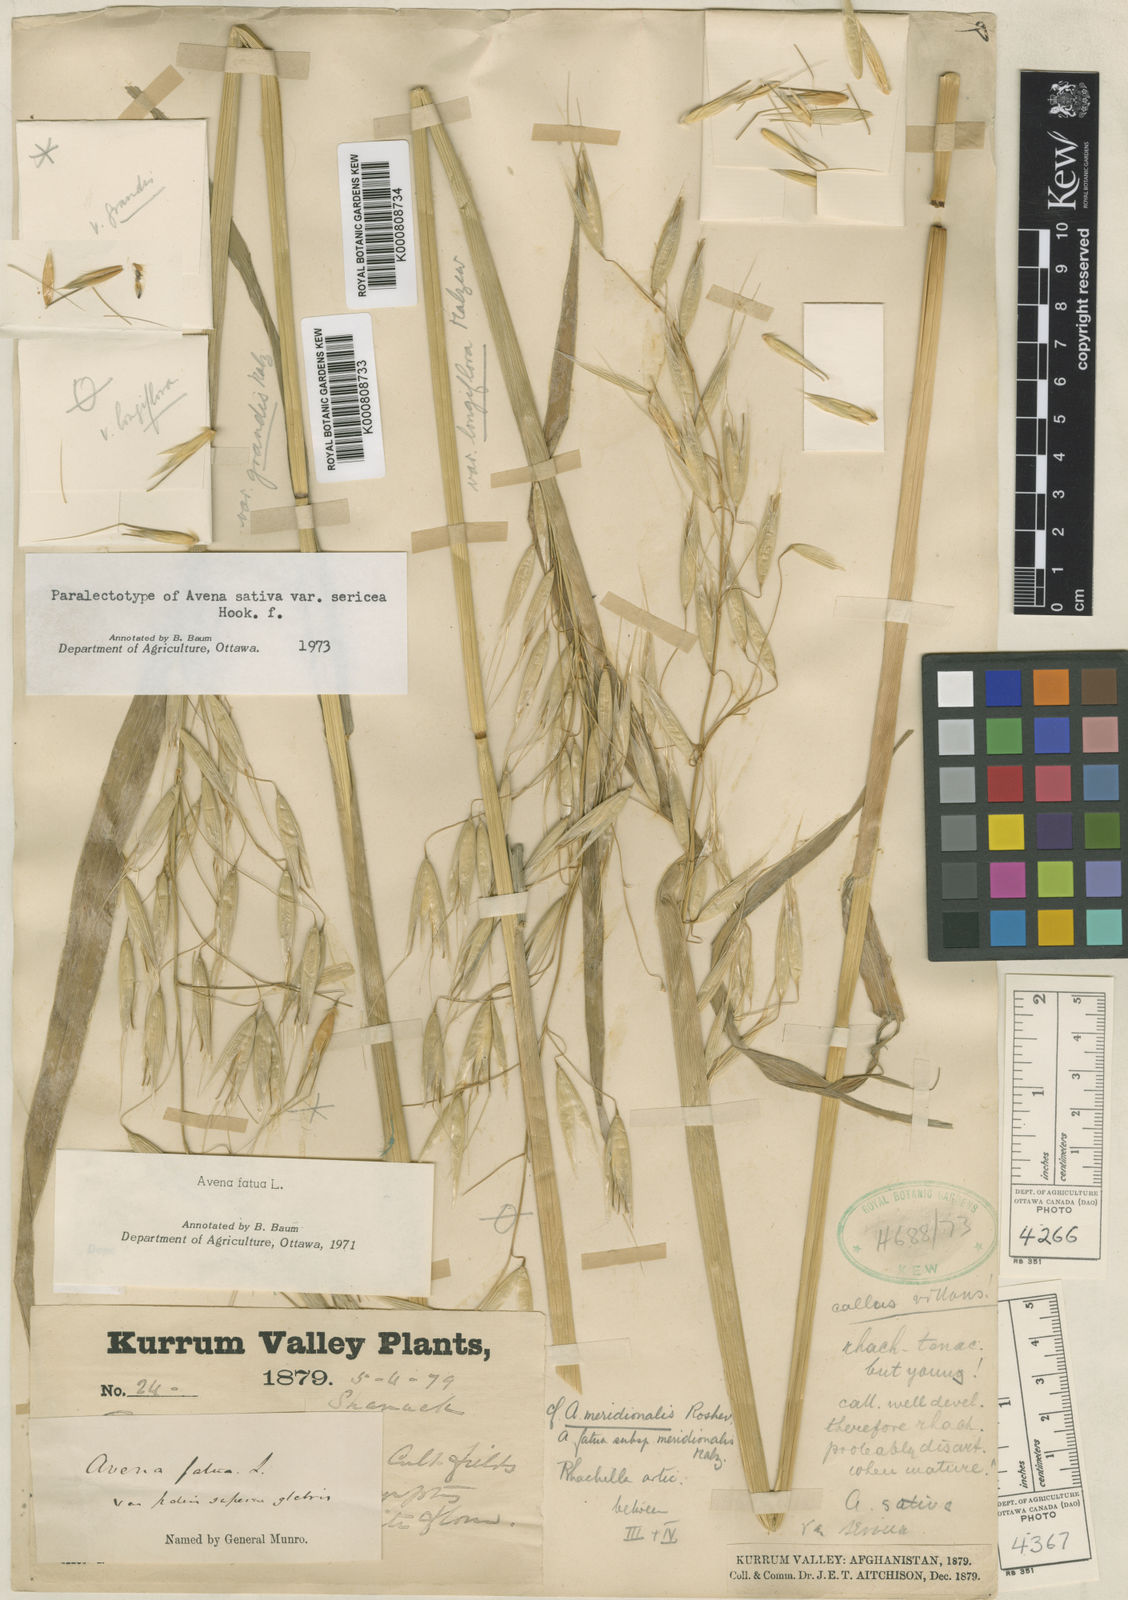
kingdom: Plantae
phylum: Tracheophyta
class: Liliopsida
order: Poales
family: Poaceae
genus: Avena
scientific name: Avena fatua
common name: Wild oat
